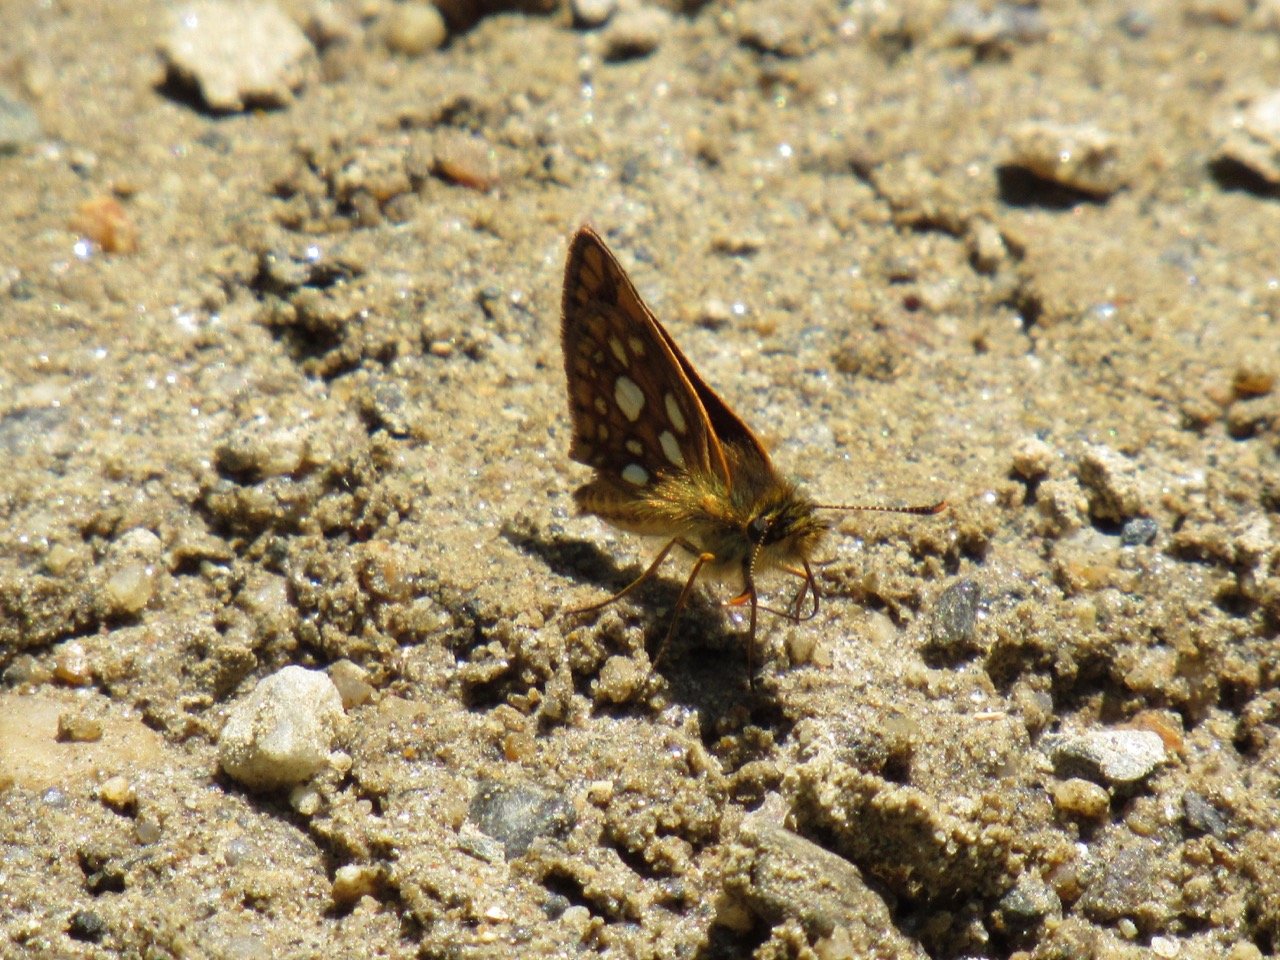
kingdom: Animalia
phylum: Arthropoda
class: Insecta
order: Lepidoptera
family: Hesperiidae
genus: Carterocephalus
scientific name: Carterocephalus palaemon
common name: Chequered Skipper
